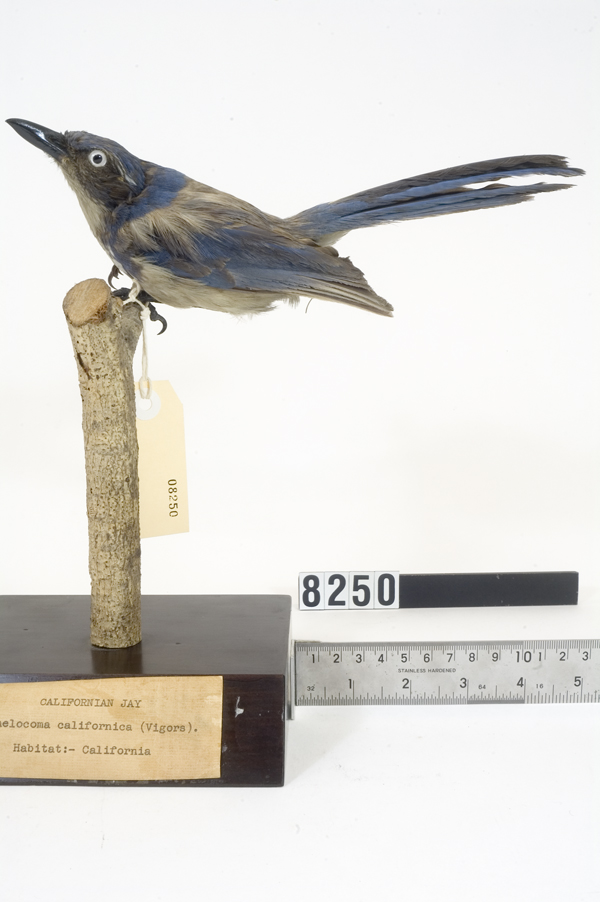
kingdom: Animalia
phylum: Chordata
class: Aves
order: Passeriformes
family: Corvidae
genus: Aphelocoma
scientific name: Aphelocoma coerulescens
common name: Florida scrub jay
